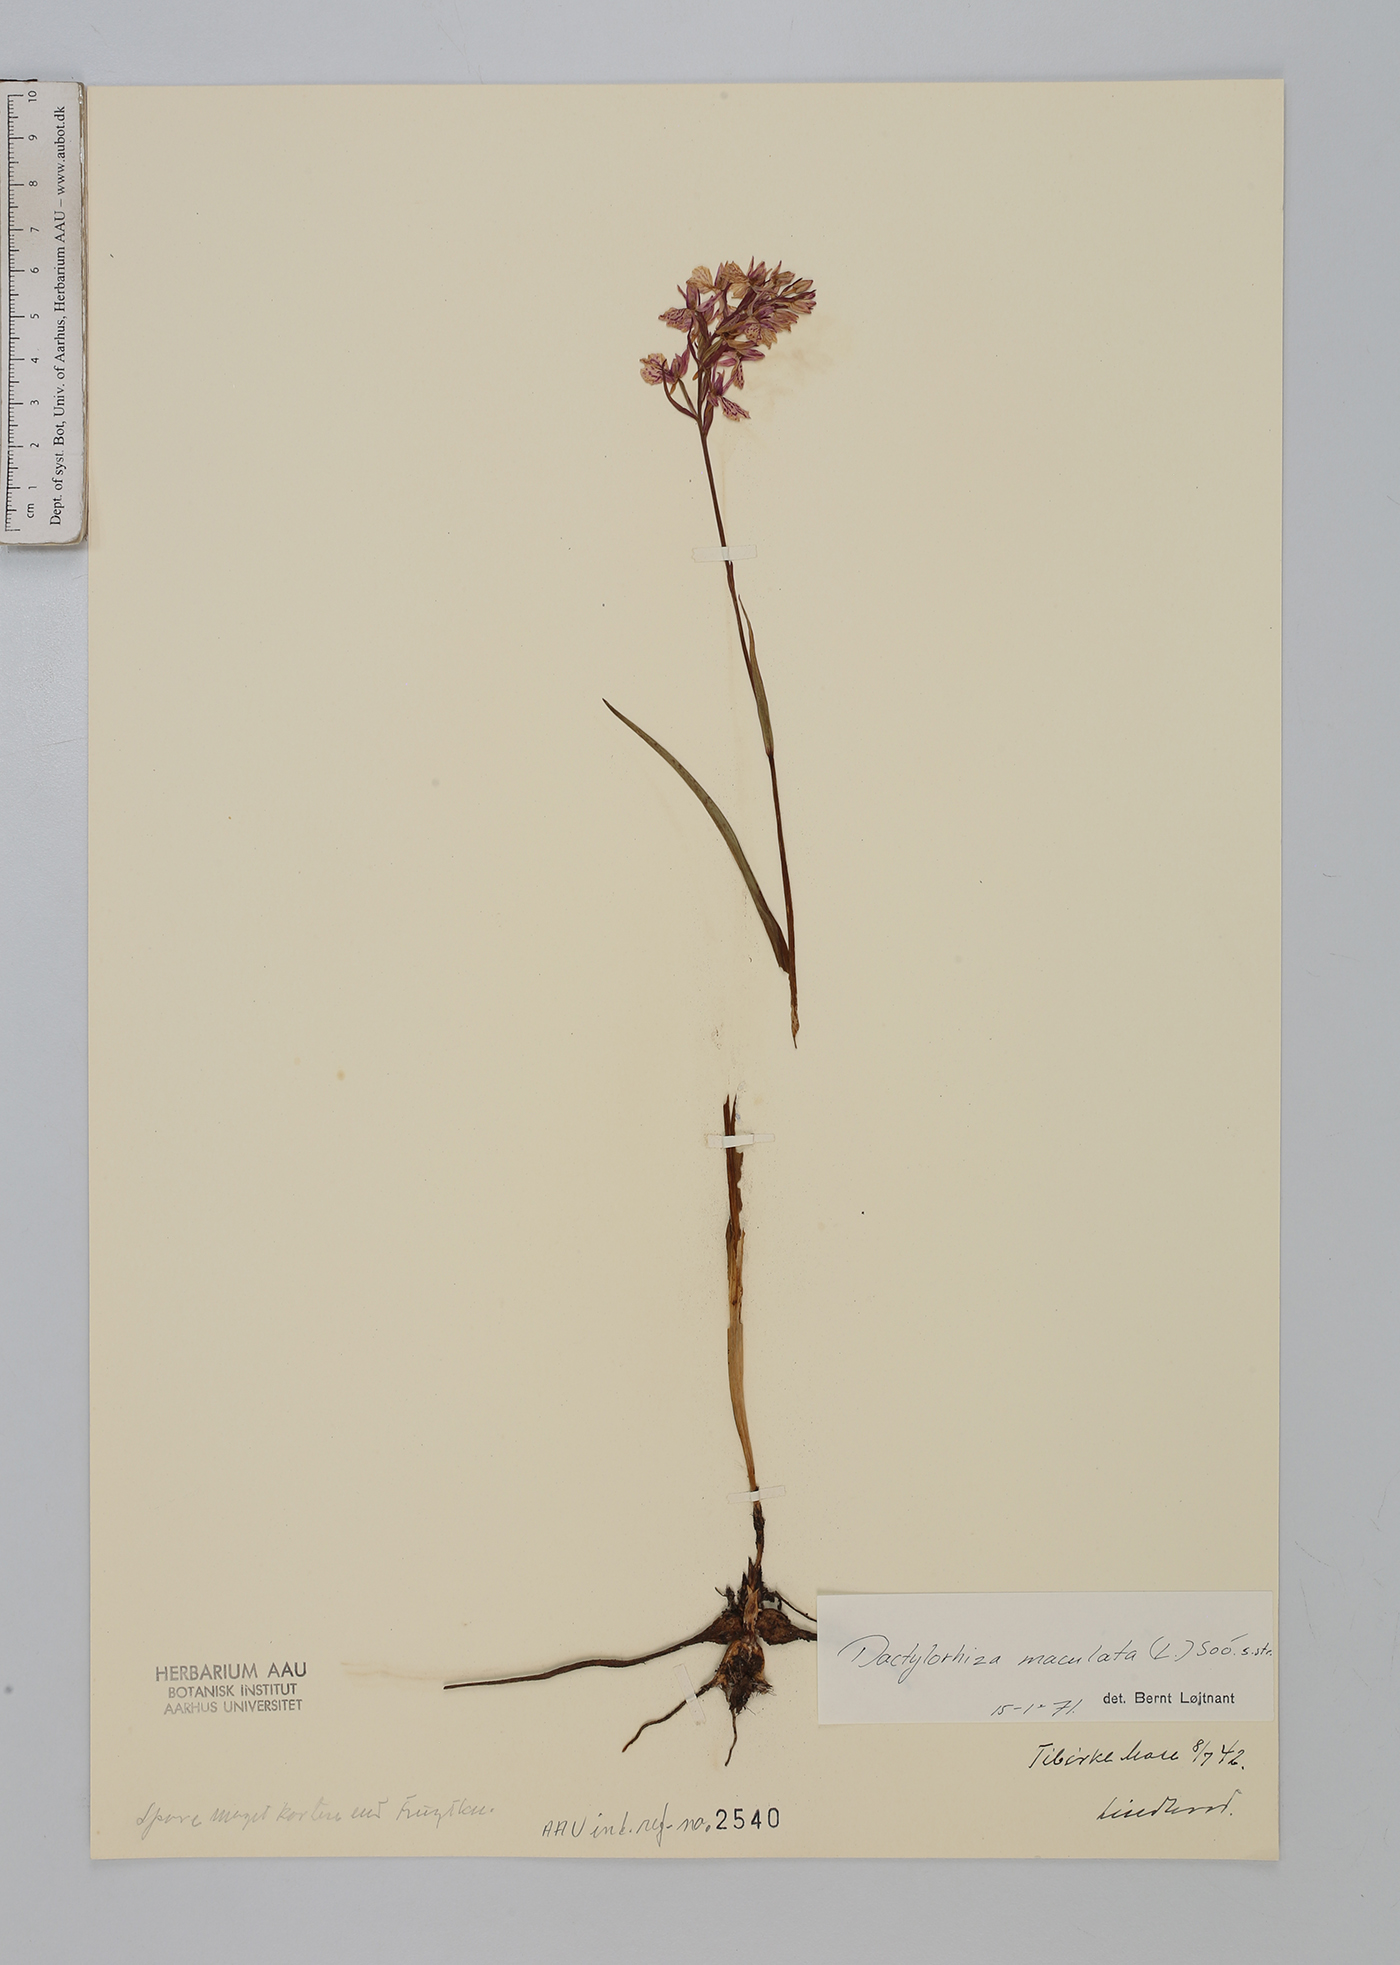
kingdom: Plantae
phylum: Tracheophyta
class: Liliopsida
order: Asparagales
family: Orchidaceae
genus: Dactylorhiza
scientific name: Dactylorhiza maculata
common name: Heath spotted-orchid
